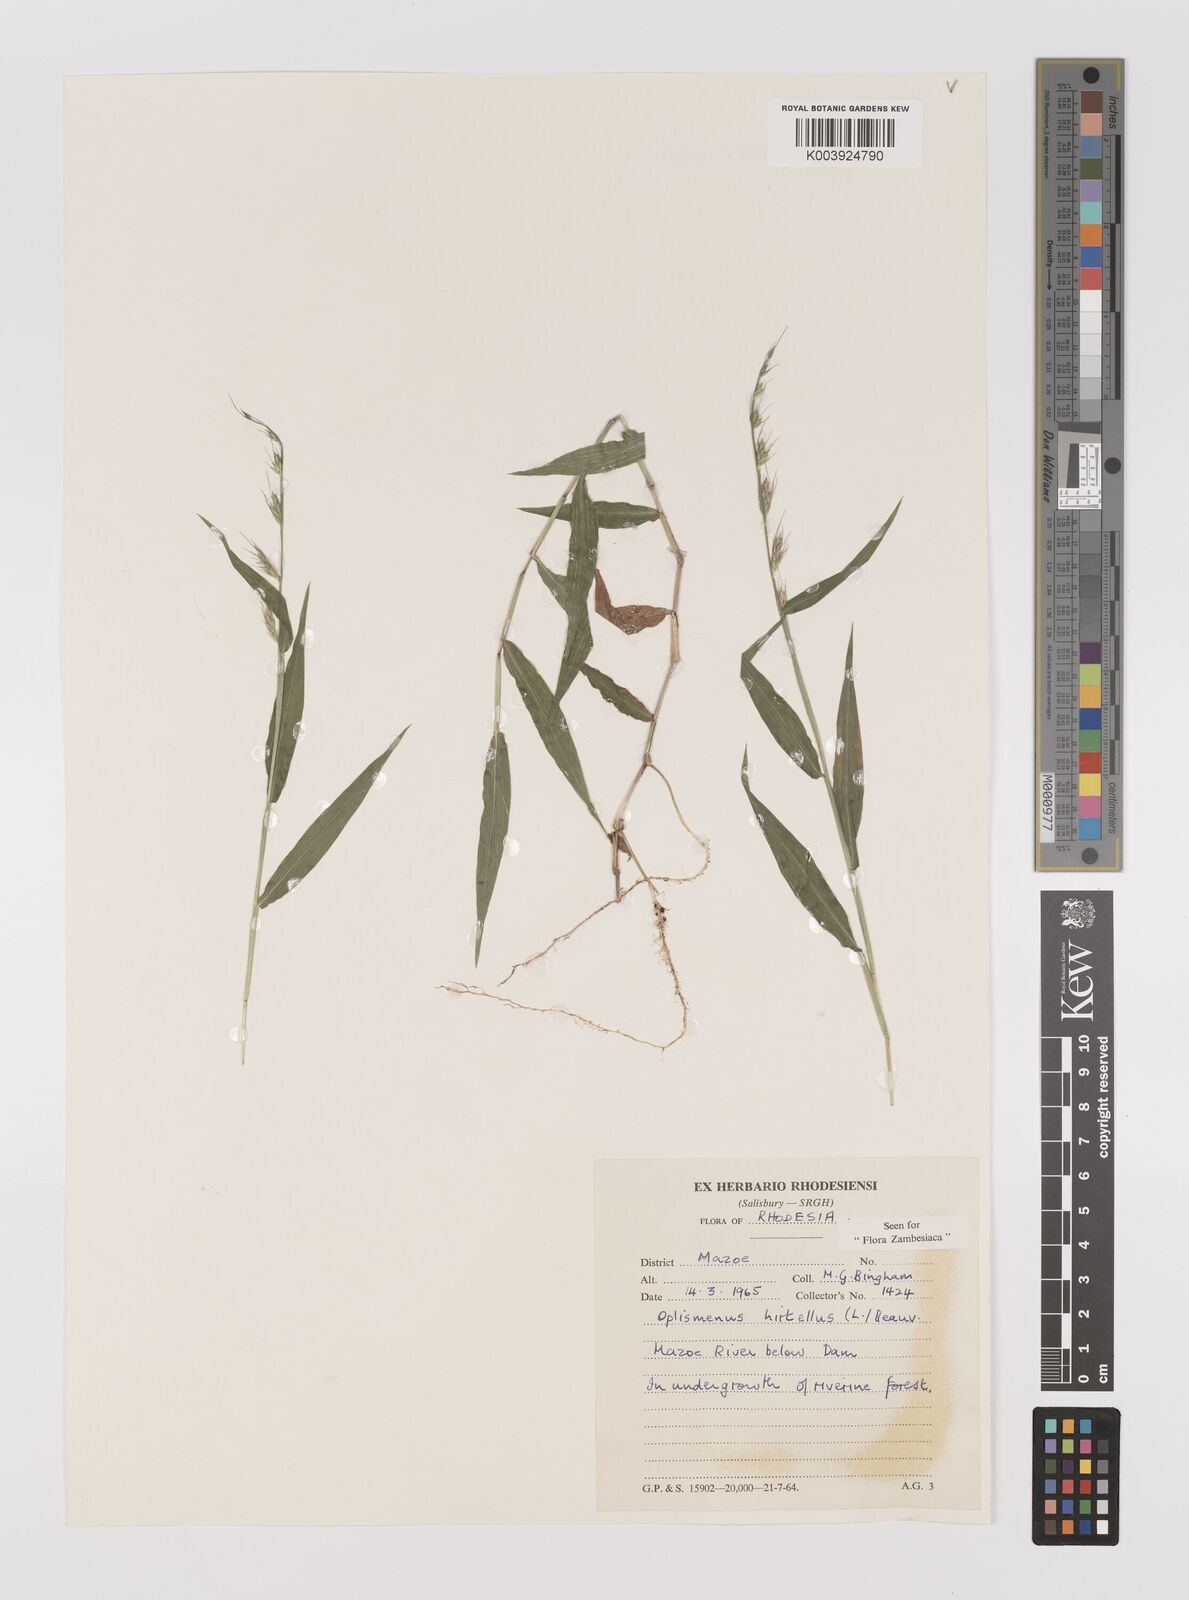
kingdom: Plantae
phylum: Tracheophyta
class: Liliopsida
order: Poales
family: Poaceae
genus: Oplismenus
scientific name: Oplismenus hirtellus
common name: Basketgrass
